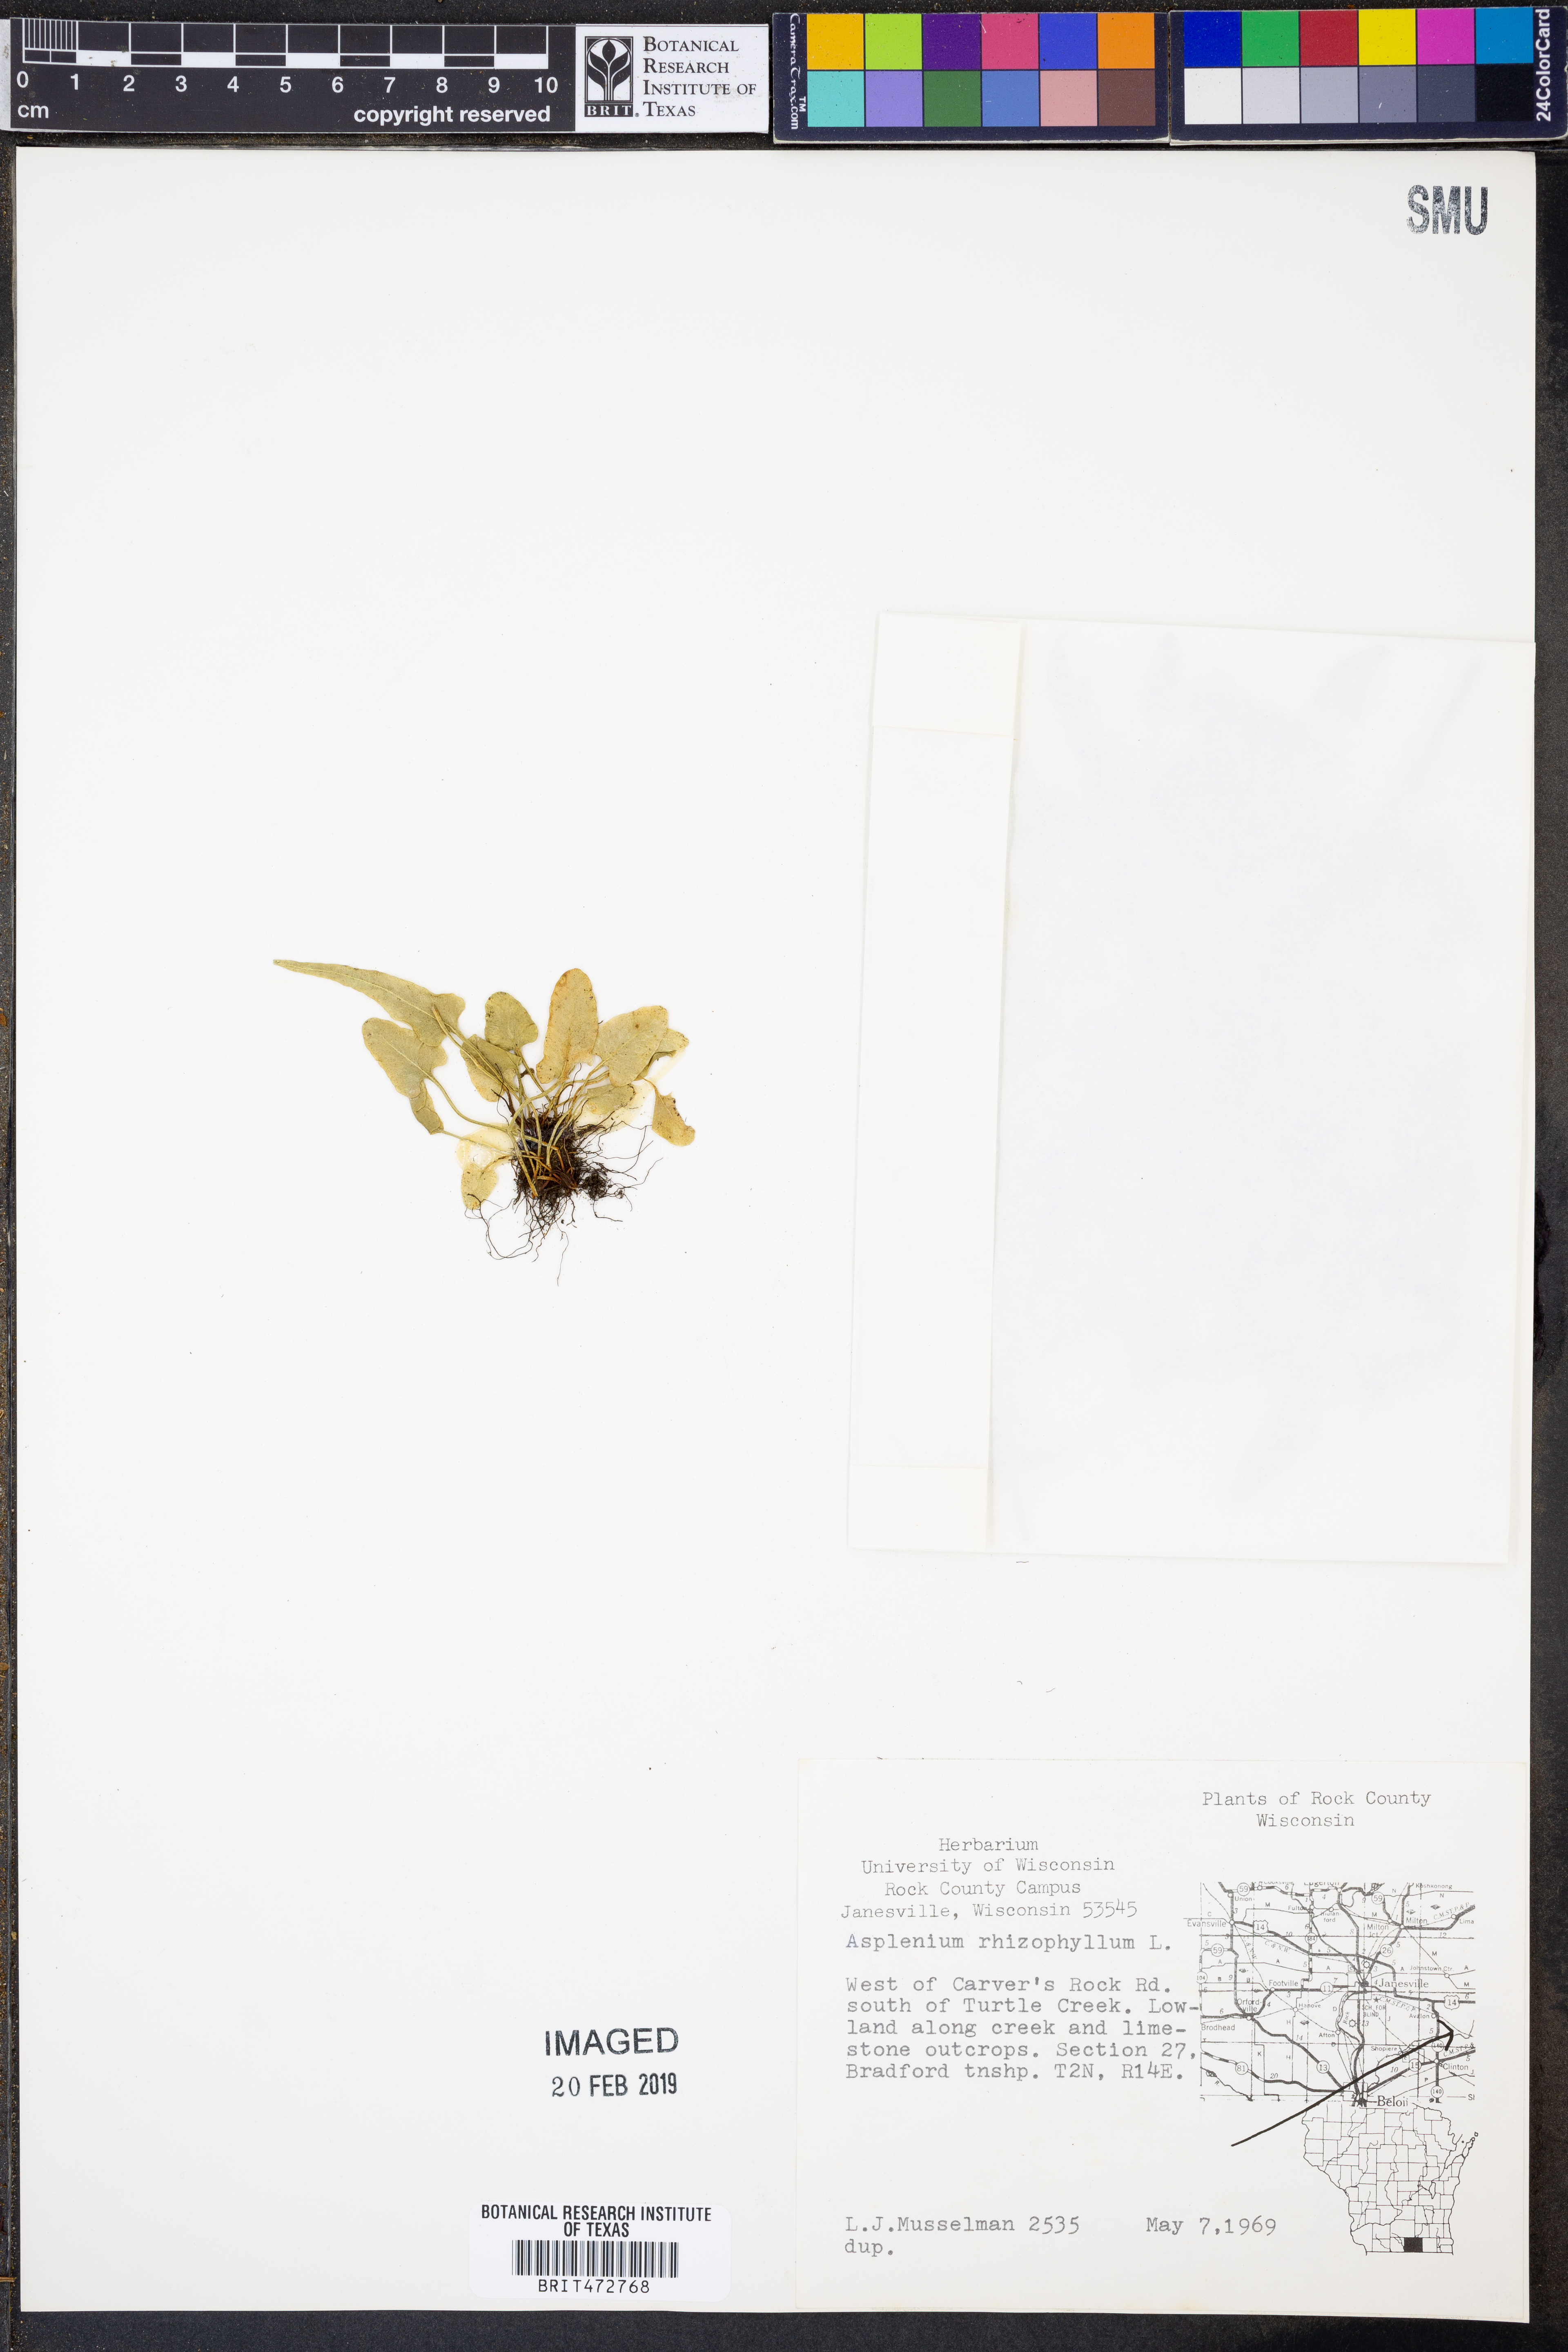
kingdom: Plantae
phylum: Tracheophyta
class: Polypodiopsida
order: Polypodiales
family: Aspleniaceae
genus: Asplenium
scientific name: Asplenium rhizophyllum
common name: Walking fern
